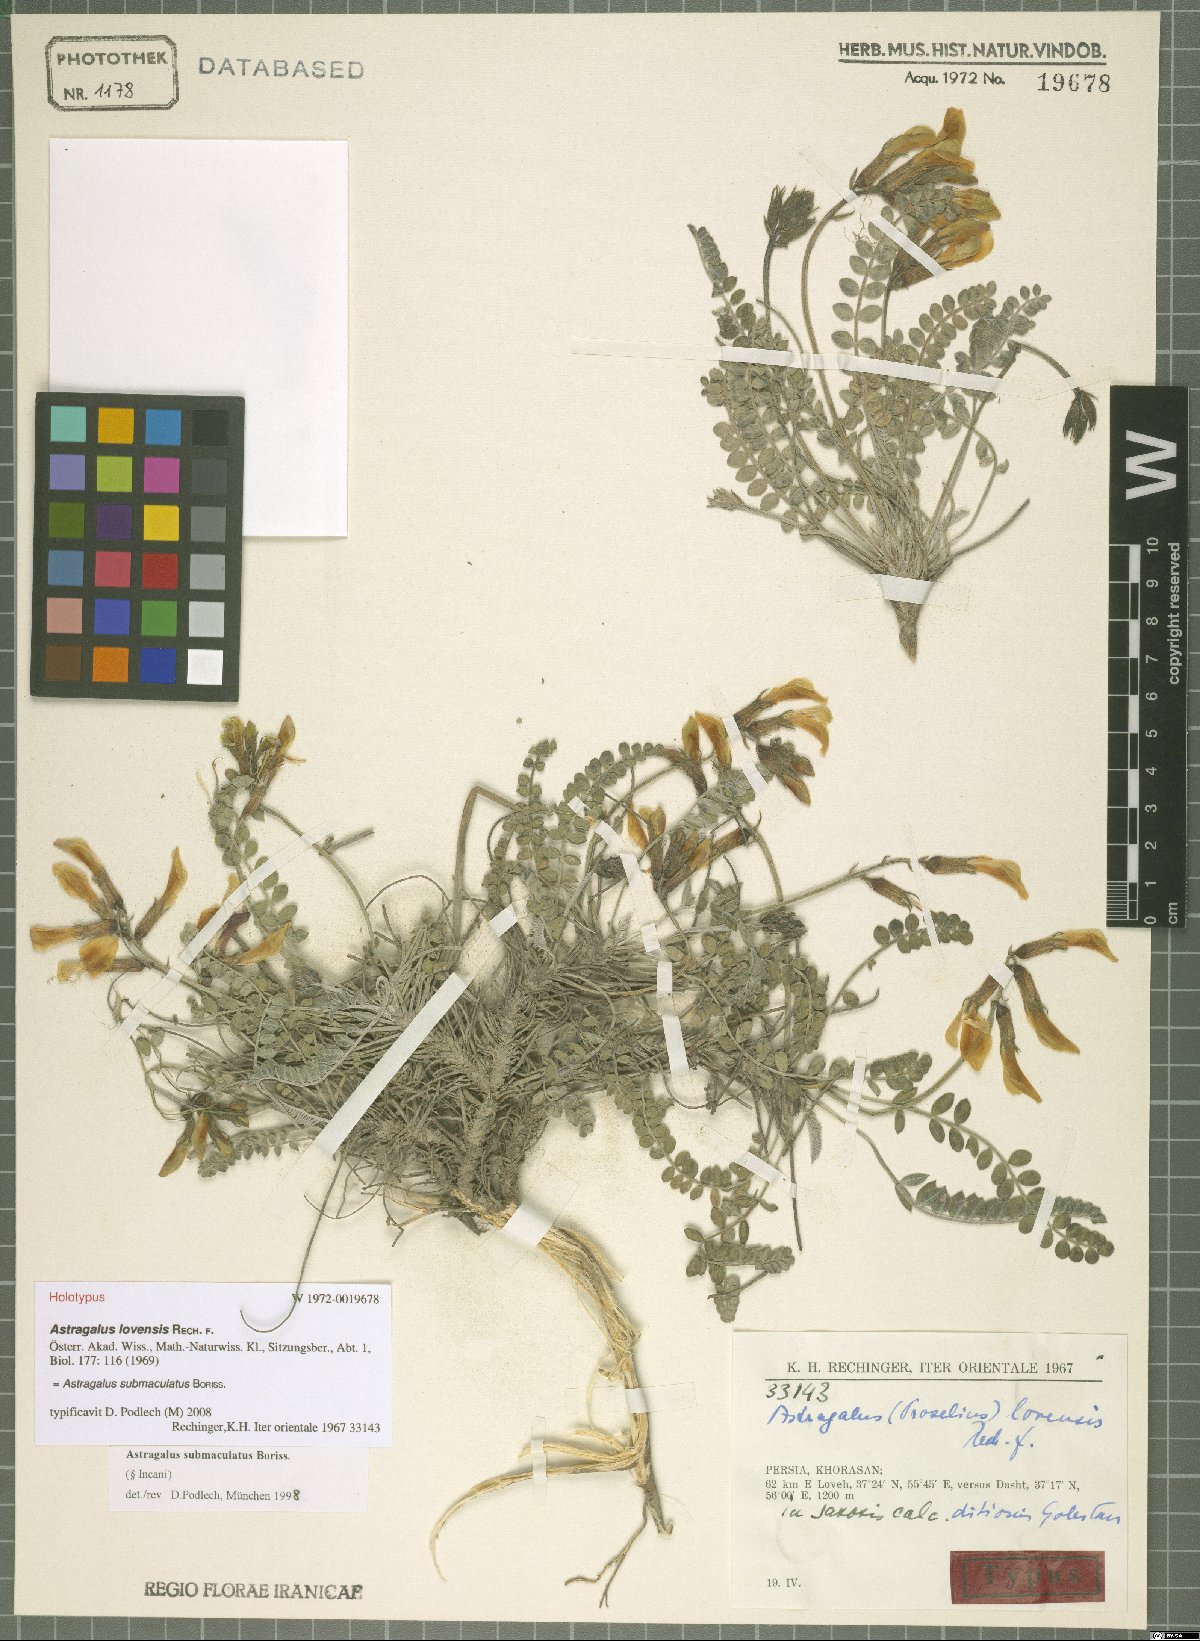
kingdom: Plantae
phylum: Tracheophyta
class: Magnoliopsida
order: Fabales
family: Fabaceae
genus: Astragalus
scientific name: Astragalus submaculatus
